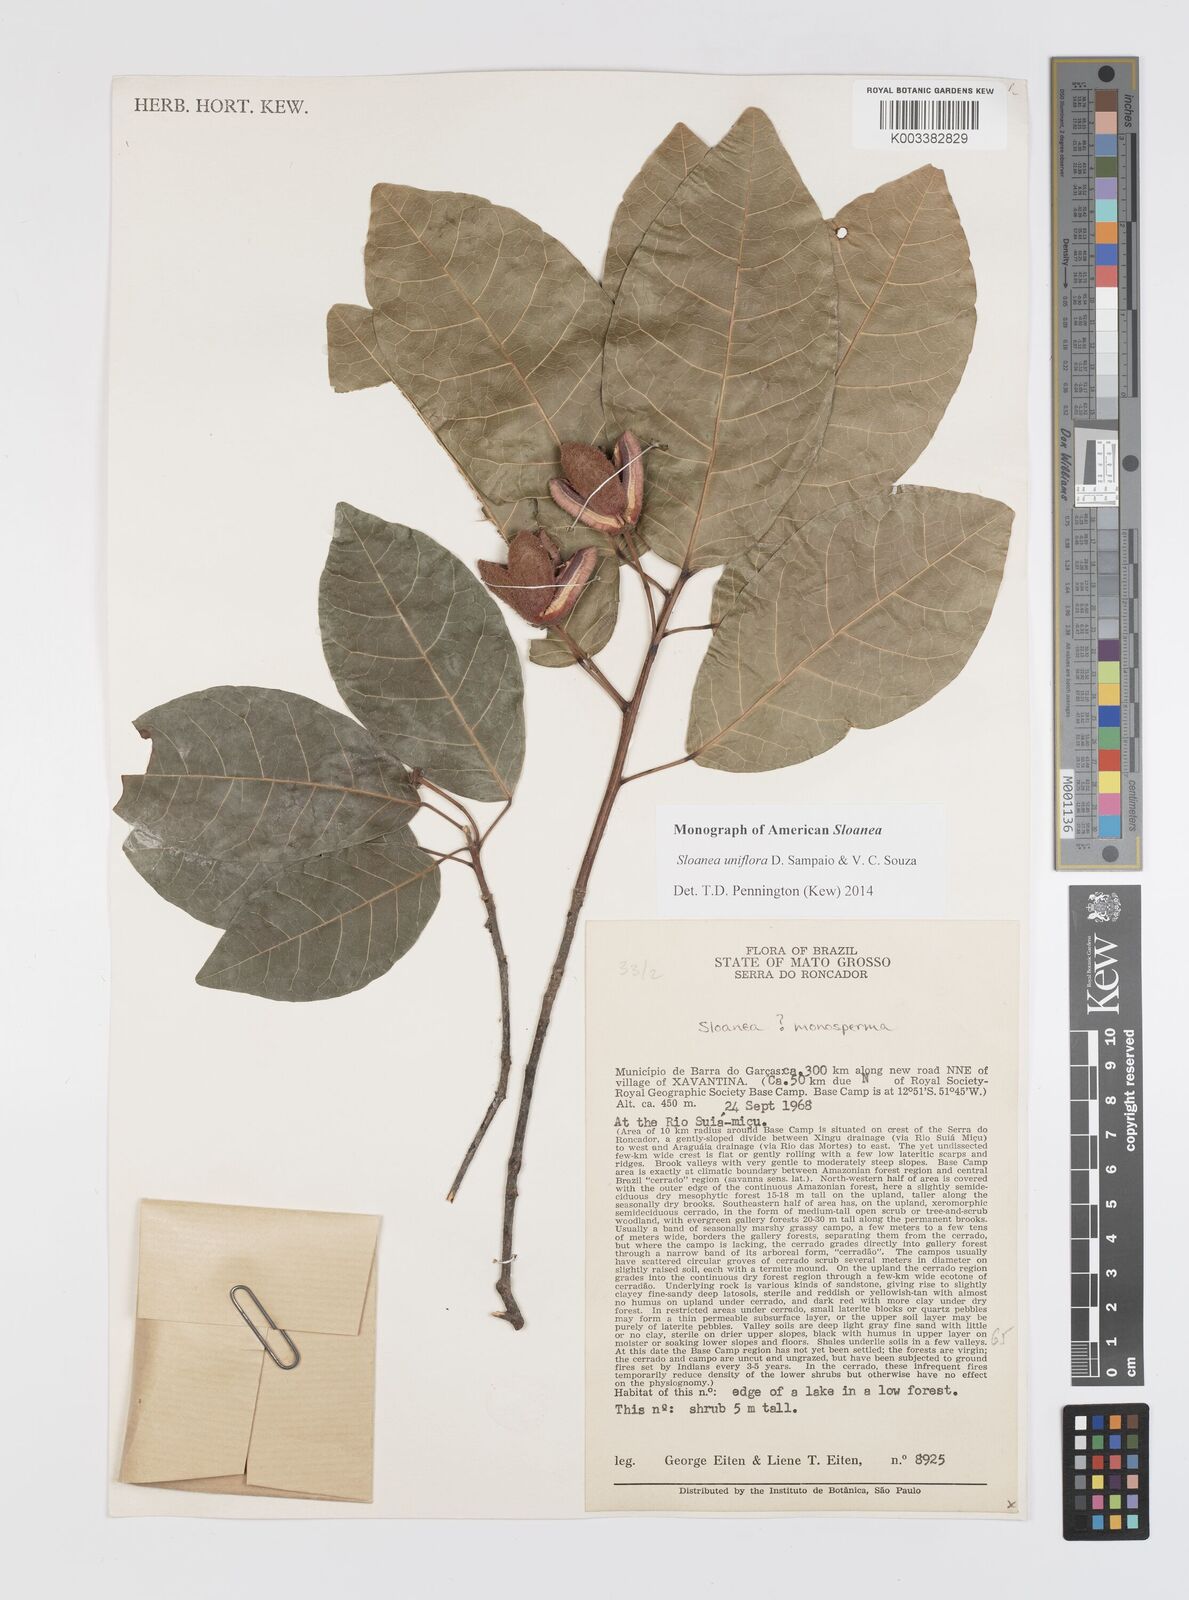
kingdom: Plantae
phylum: Tracheophyta
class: Magnoliopsida
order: Oxalidales
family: Elaeocarpaceae
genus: Sloanea
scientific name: Sloanea uniflora
